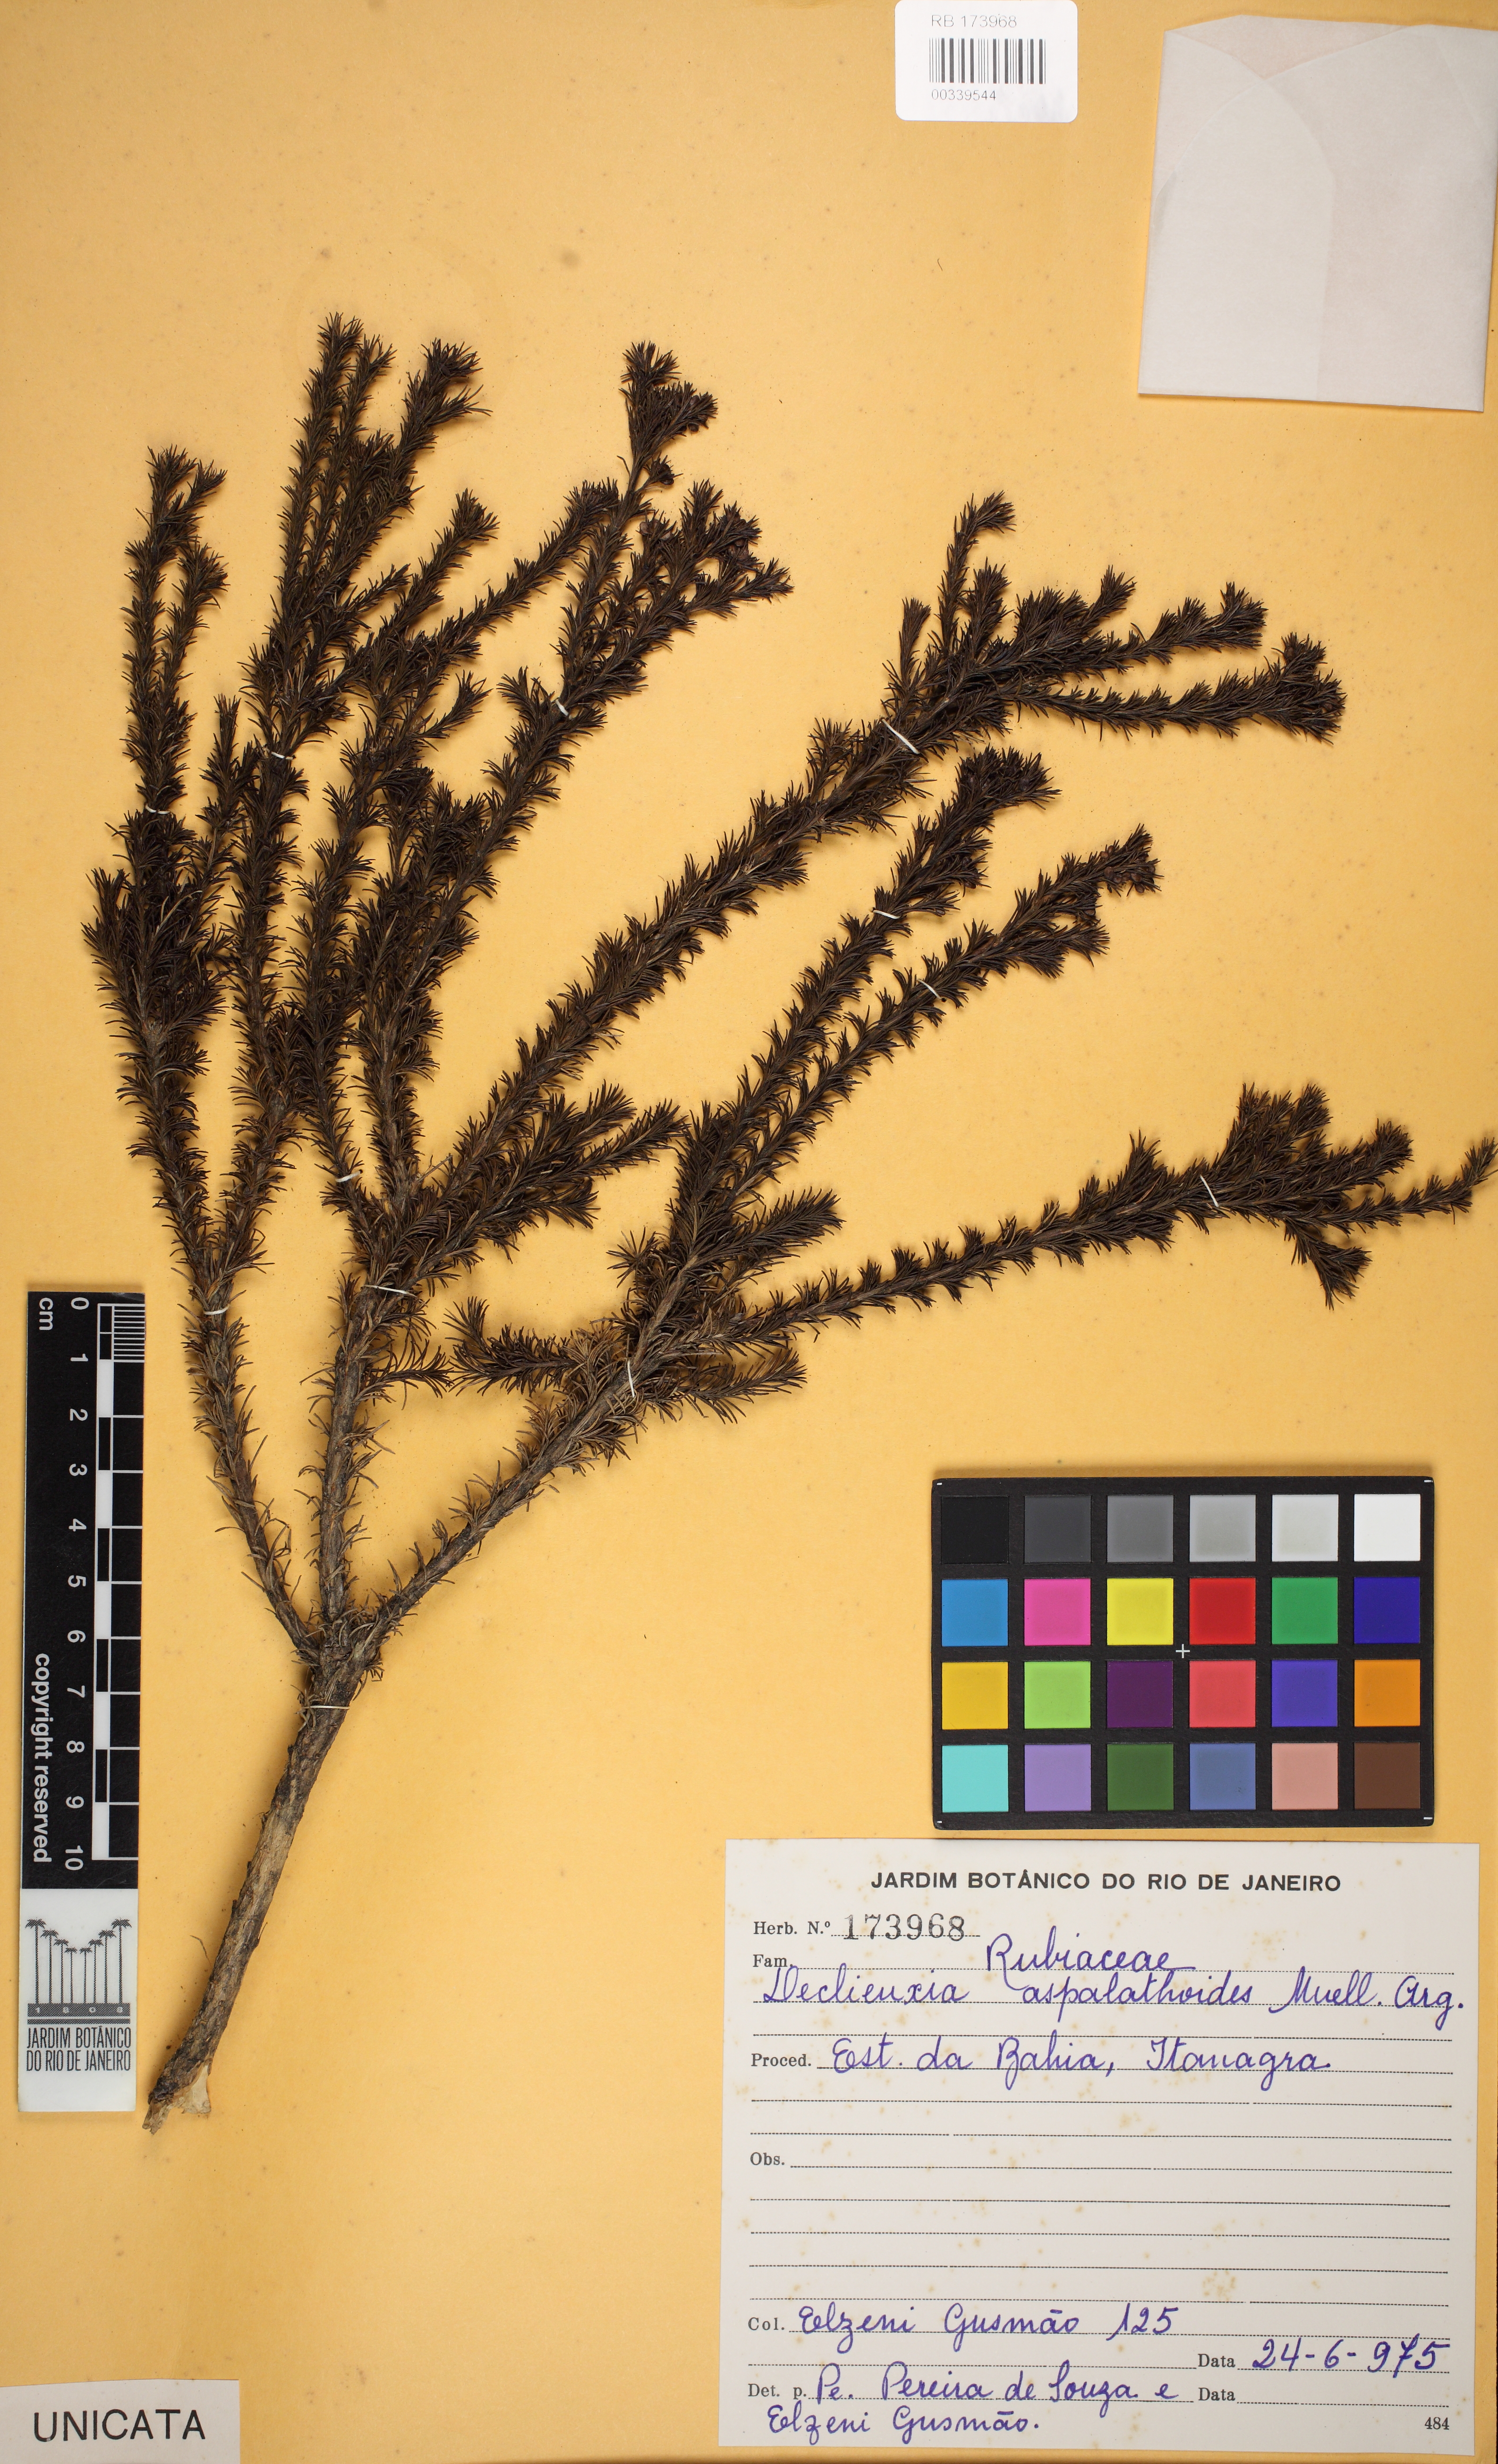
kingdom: Plantae
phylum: Tracheophyta
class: Magnoliopsida
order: Gentianales
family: Rubiaceae
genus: Declieuxia
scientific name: Declieuxia aspalathoides
